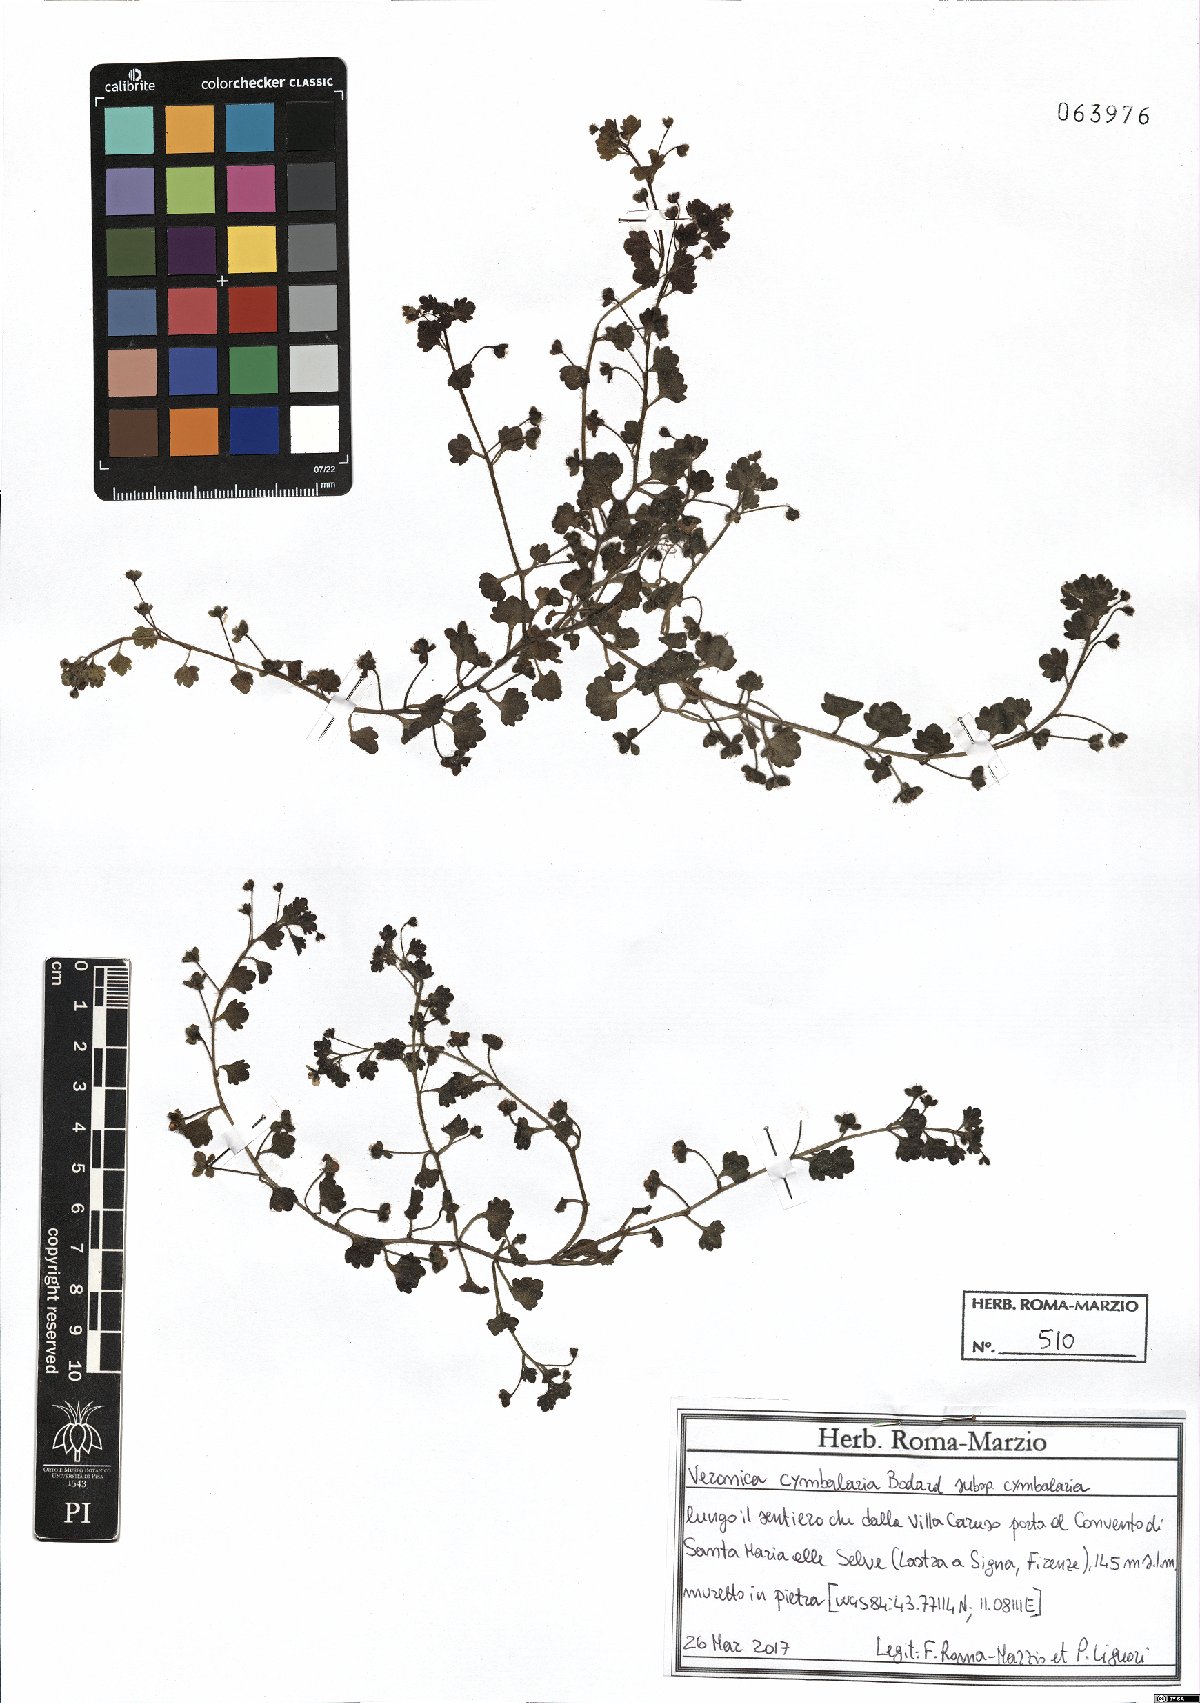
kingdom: Plantae
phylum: Tracheophyta
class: Magnoliopsida
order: Lamiales
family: Plantaginaceae
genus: Veronica
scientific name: Veronica cymbalaria
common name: Pale speedwell
